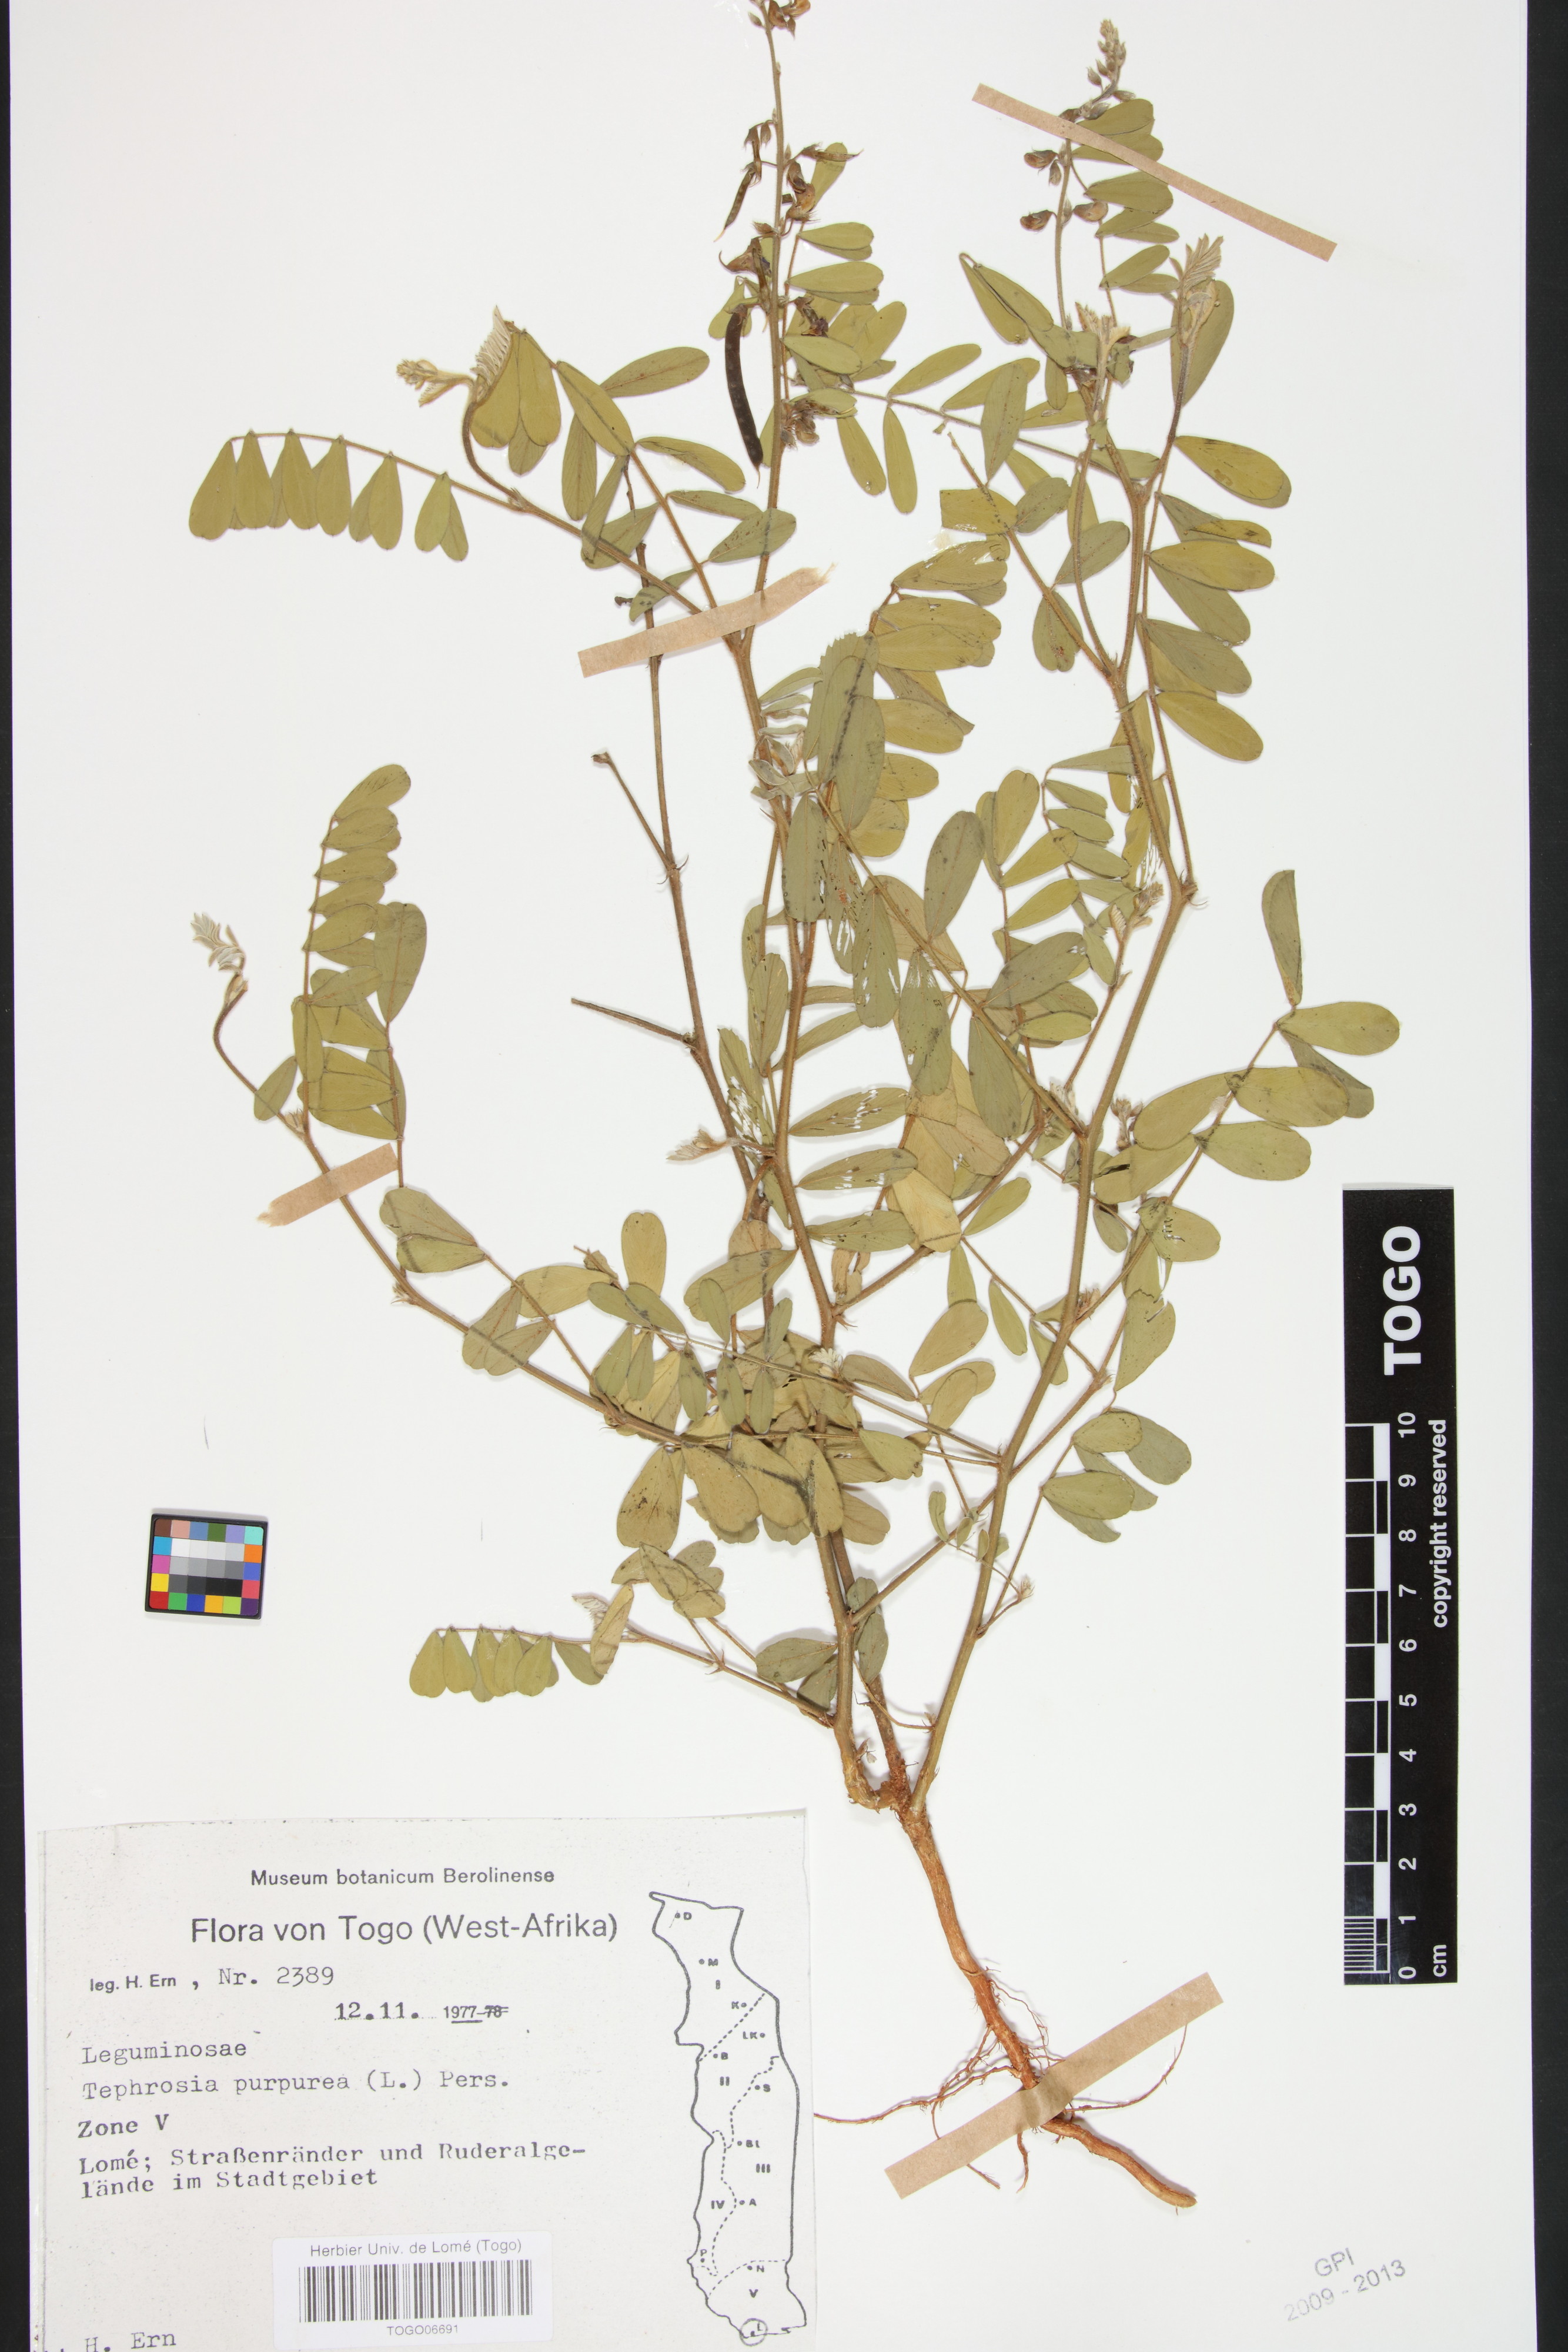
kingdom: Plantae
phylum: Tracheophyta
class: Magnoliopsida
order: Fabales
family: Fabaceae
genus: Tephrosia
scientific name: Tephrosia purpurea
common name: Fishpoison
